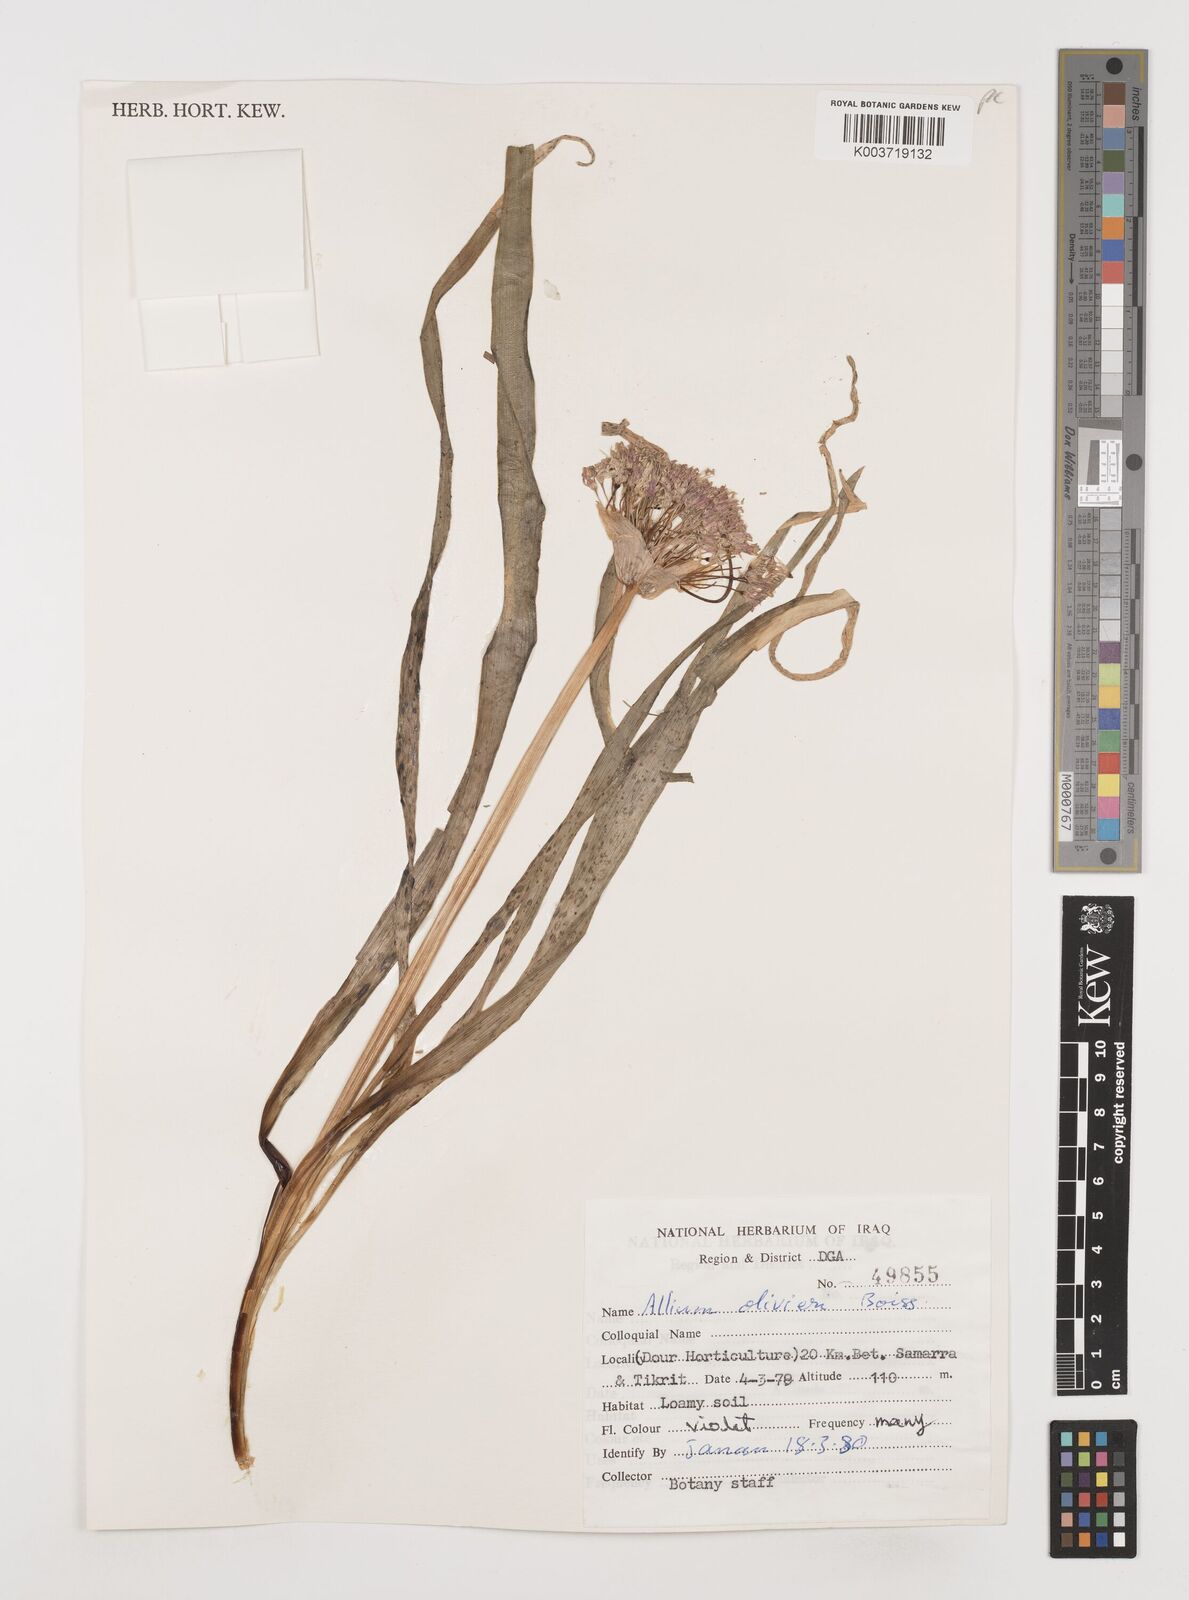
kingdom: Plantae
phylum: Tracheophyta
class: Liliopsida
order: Asparagales
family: Amaryllidaceae
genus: Allium
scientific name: Allium olivieri
